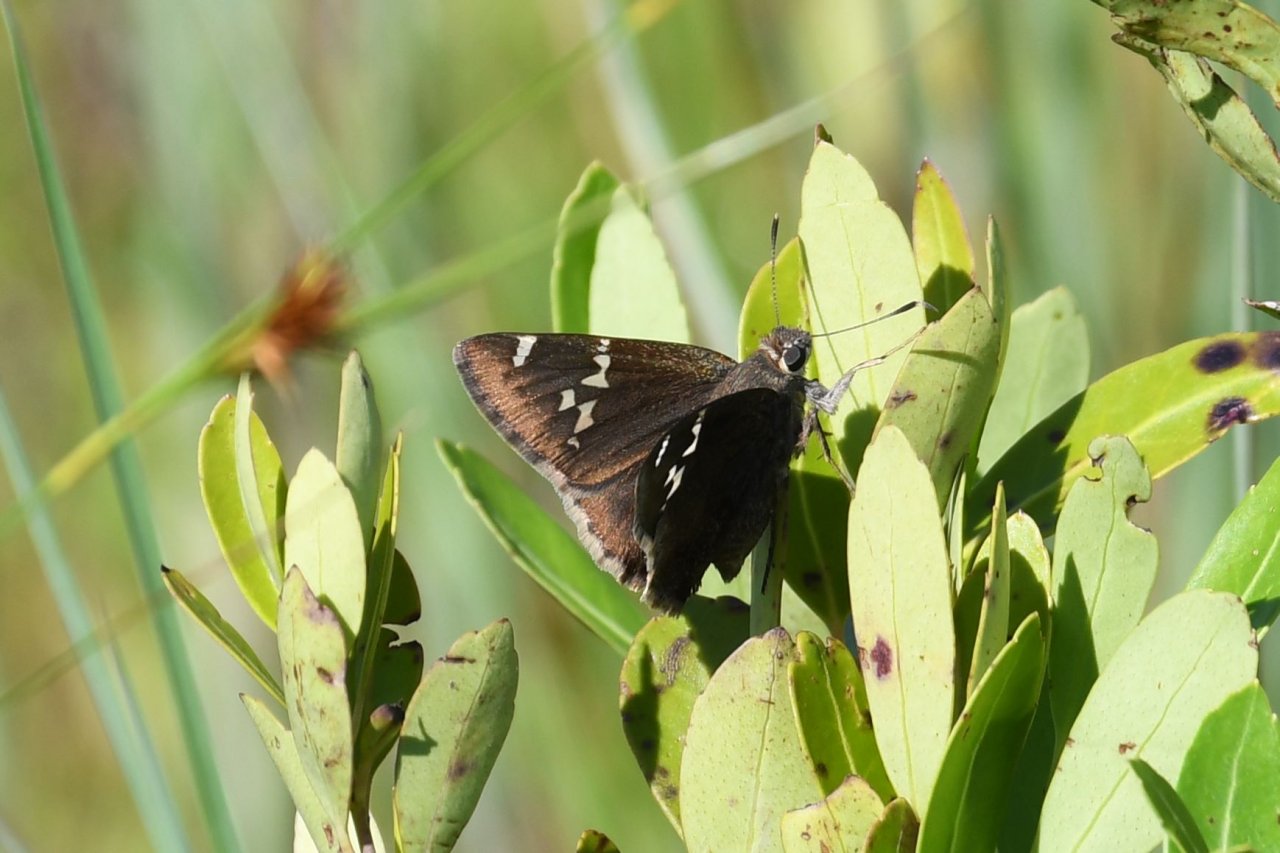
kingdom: Animalia
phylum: Arthropoda
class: Insecta
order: Lepidoptera
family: Hesperiidae
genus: Autochton
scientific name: Autochton
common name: Southern Cloudywing
